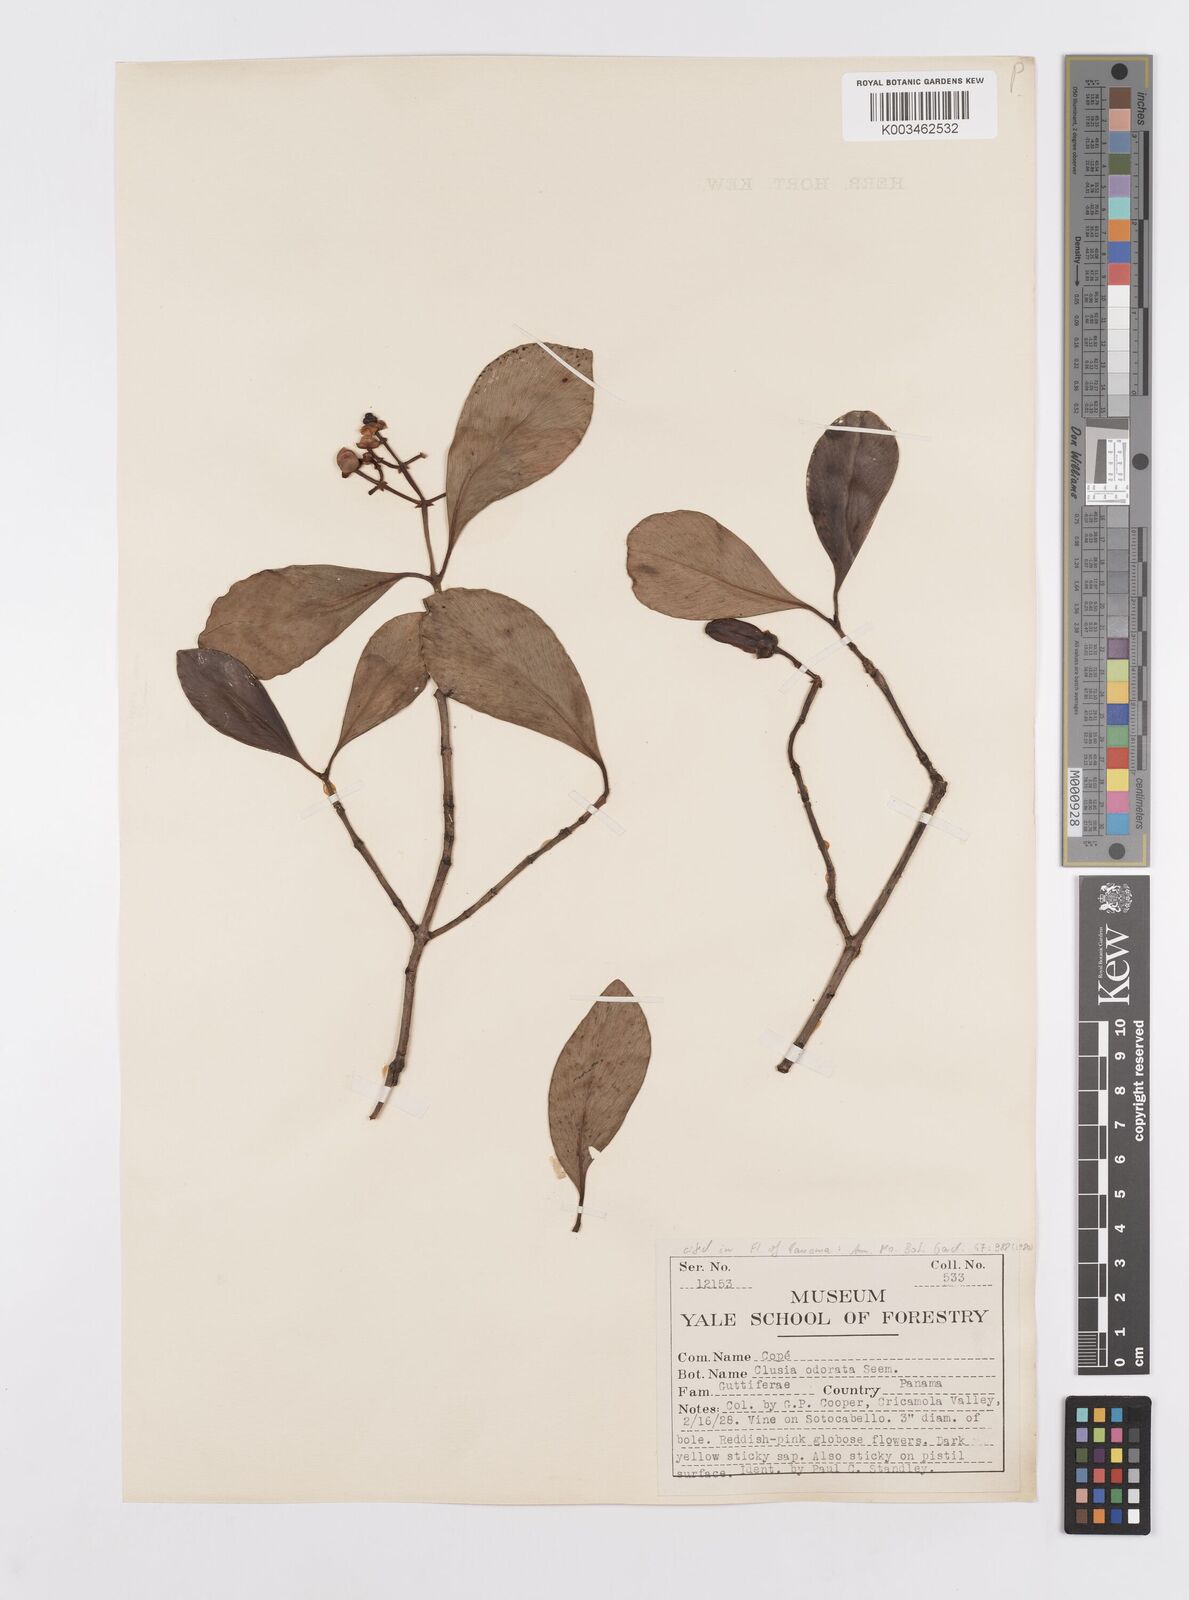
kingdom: Plantae
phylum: Tracheophyta
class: Magnoliopsida
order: Malpighiales
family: Clusiaceae
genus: Clusia
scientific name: Clusia minor
